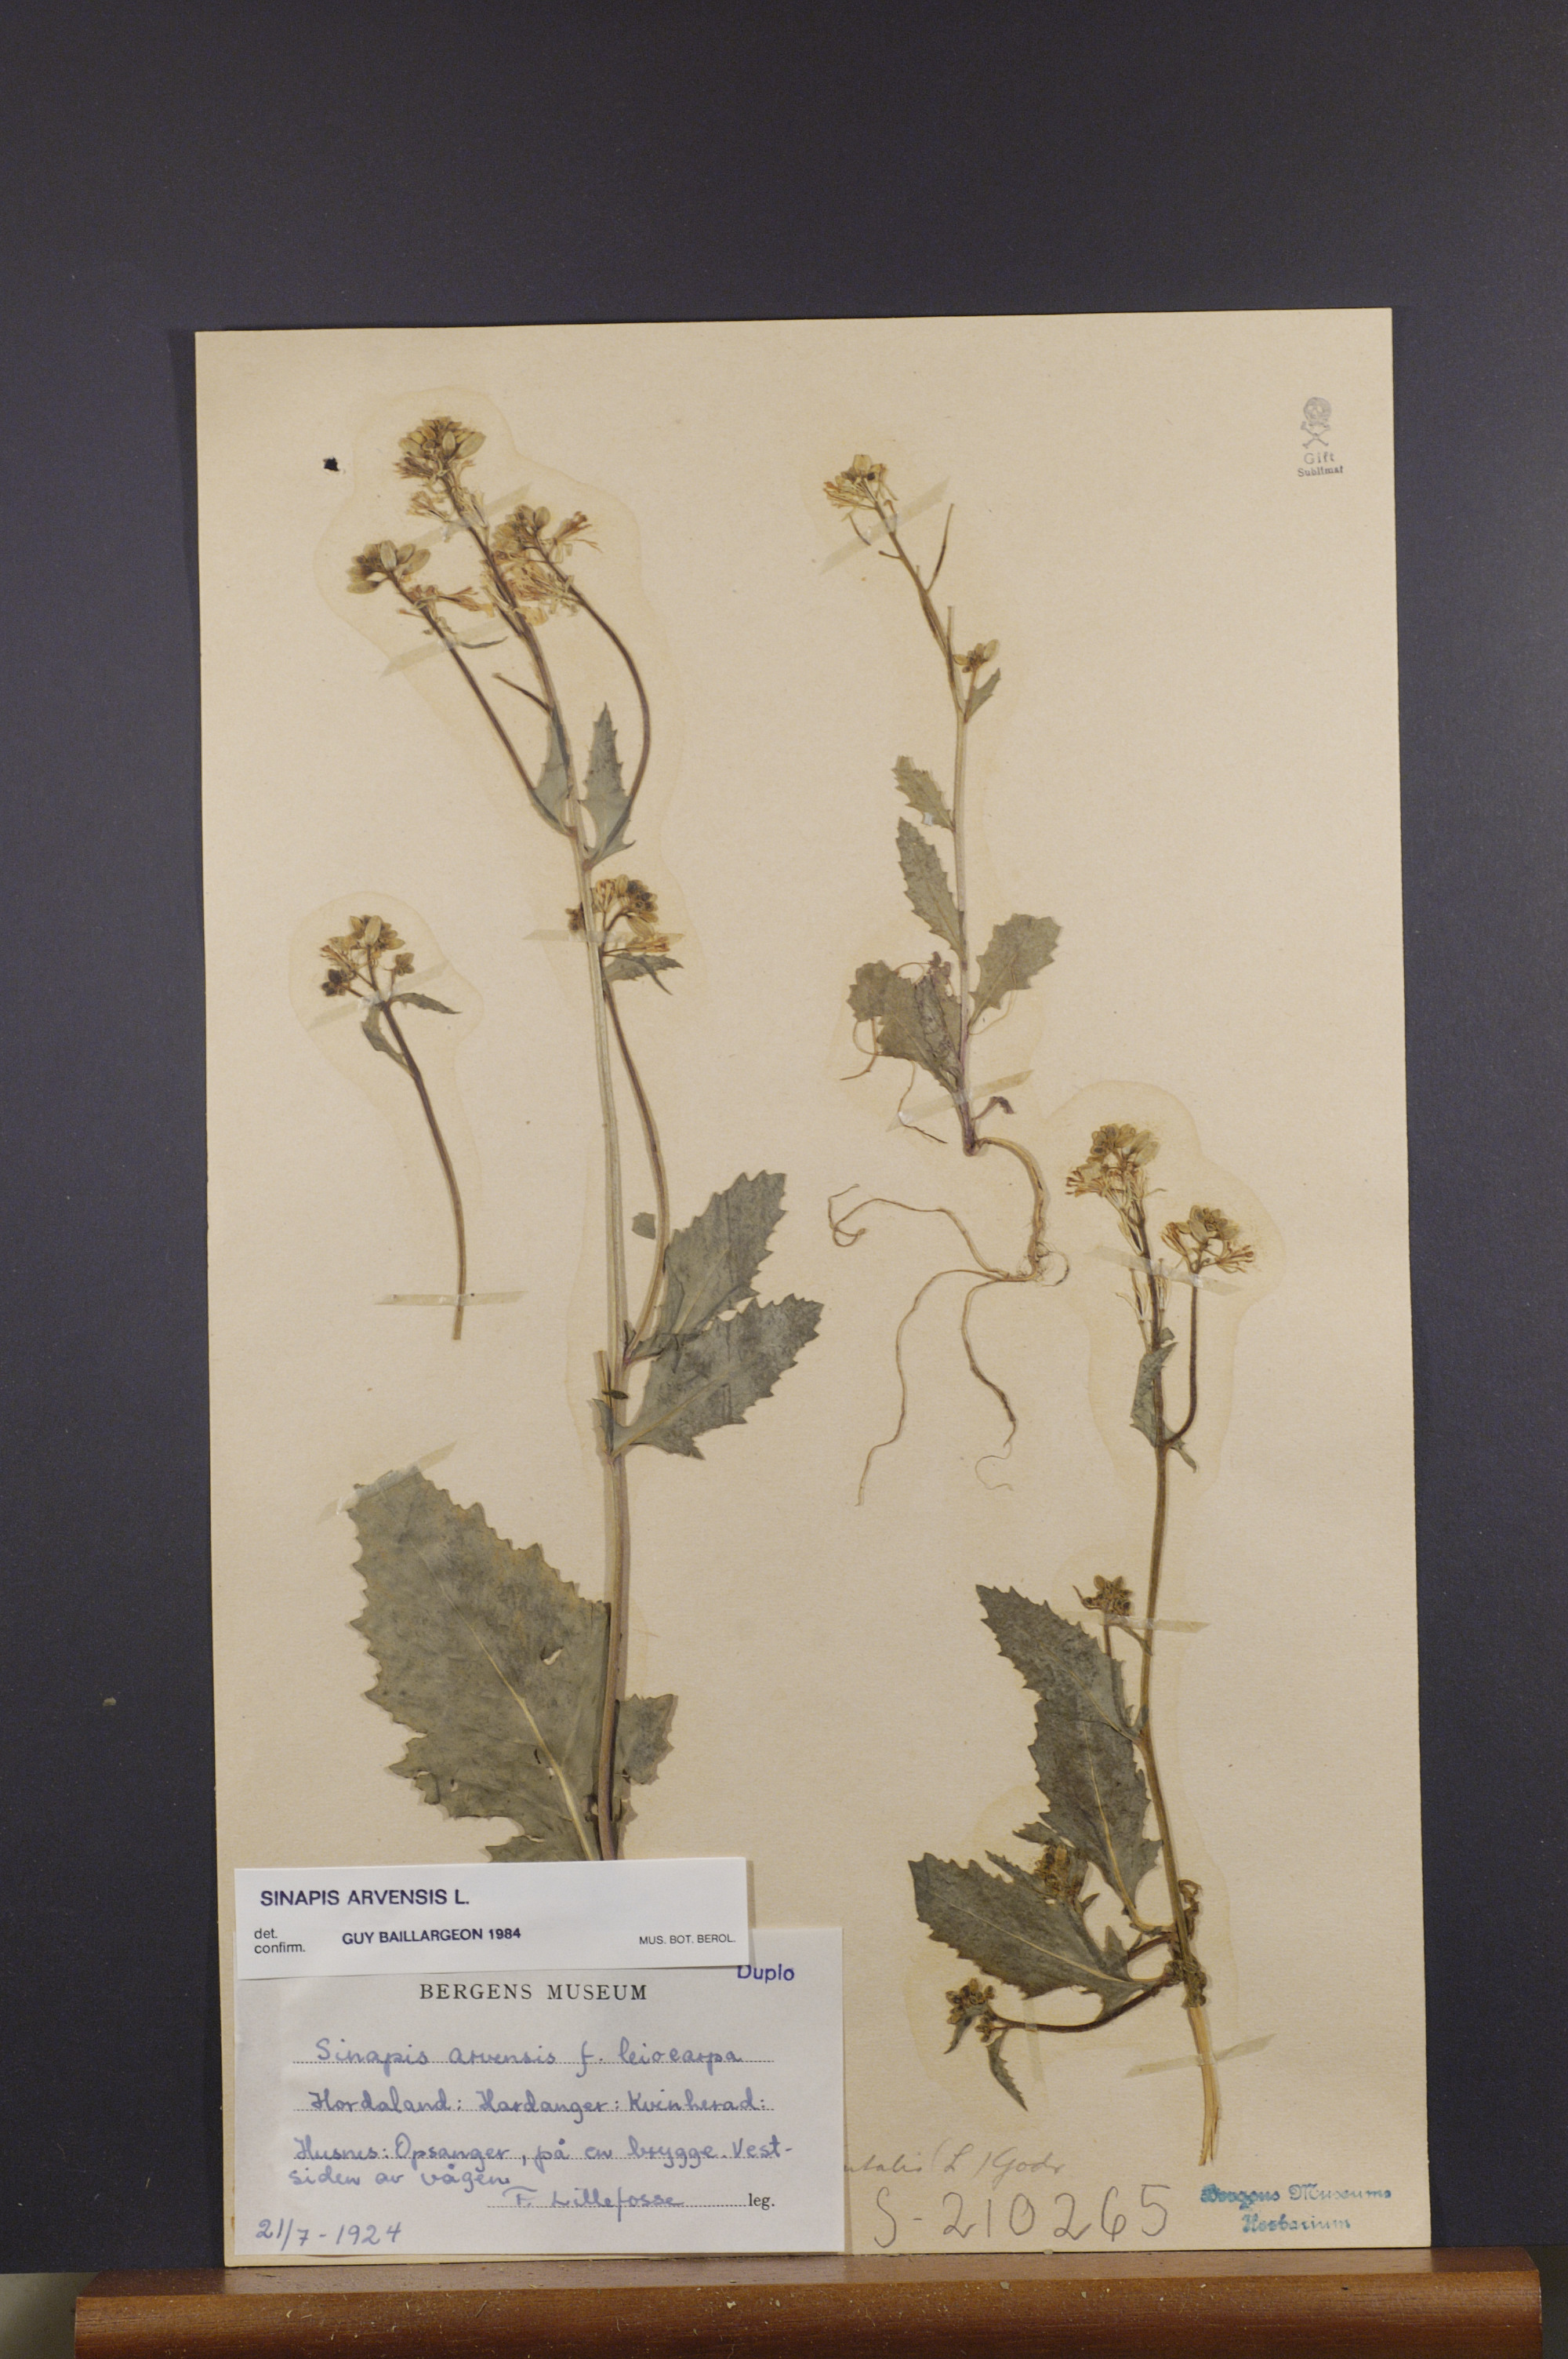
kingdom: Plantae
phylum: Tracheophyta
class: Magnoliopsida
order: Brassicales
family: Brassicaceae
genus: Sinapis
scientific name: Sinapis arvensis
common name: Charlock
